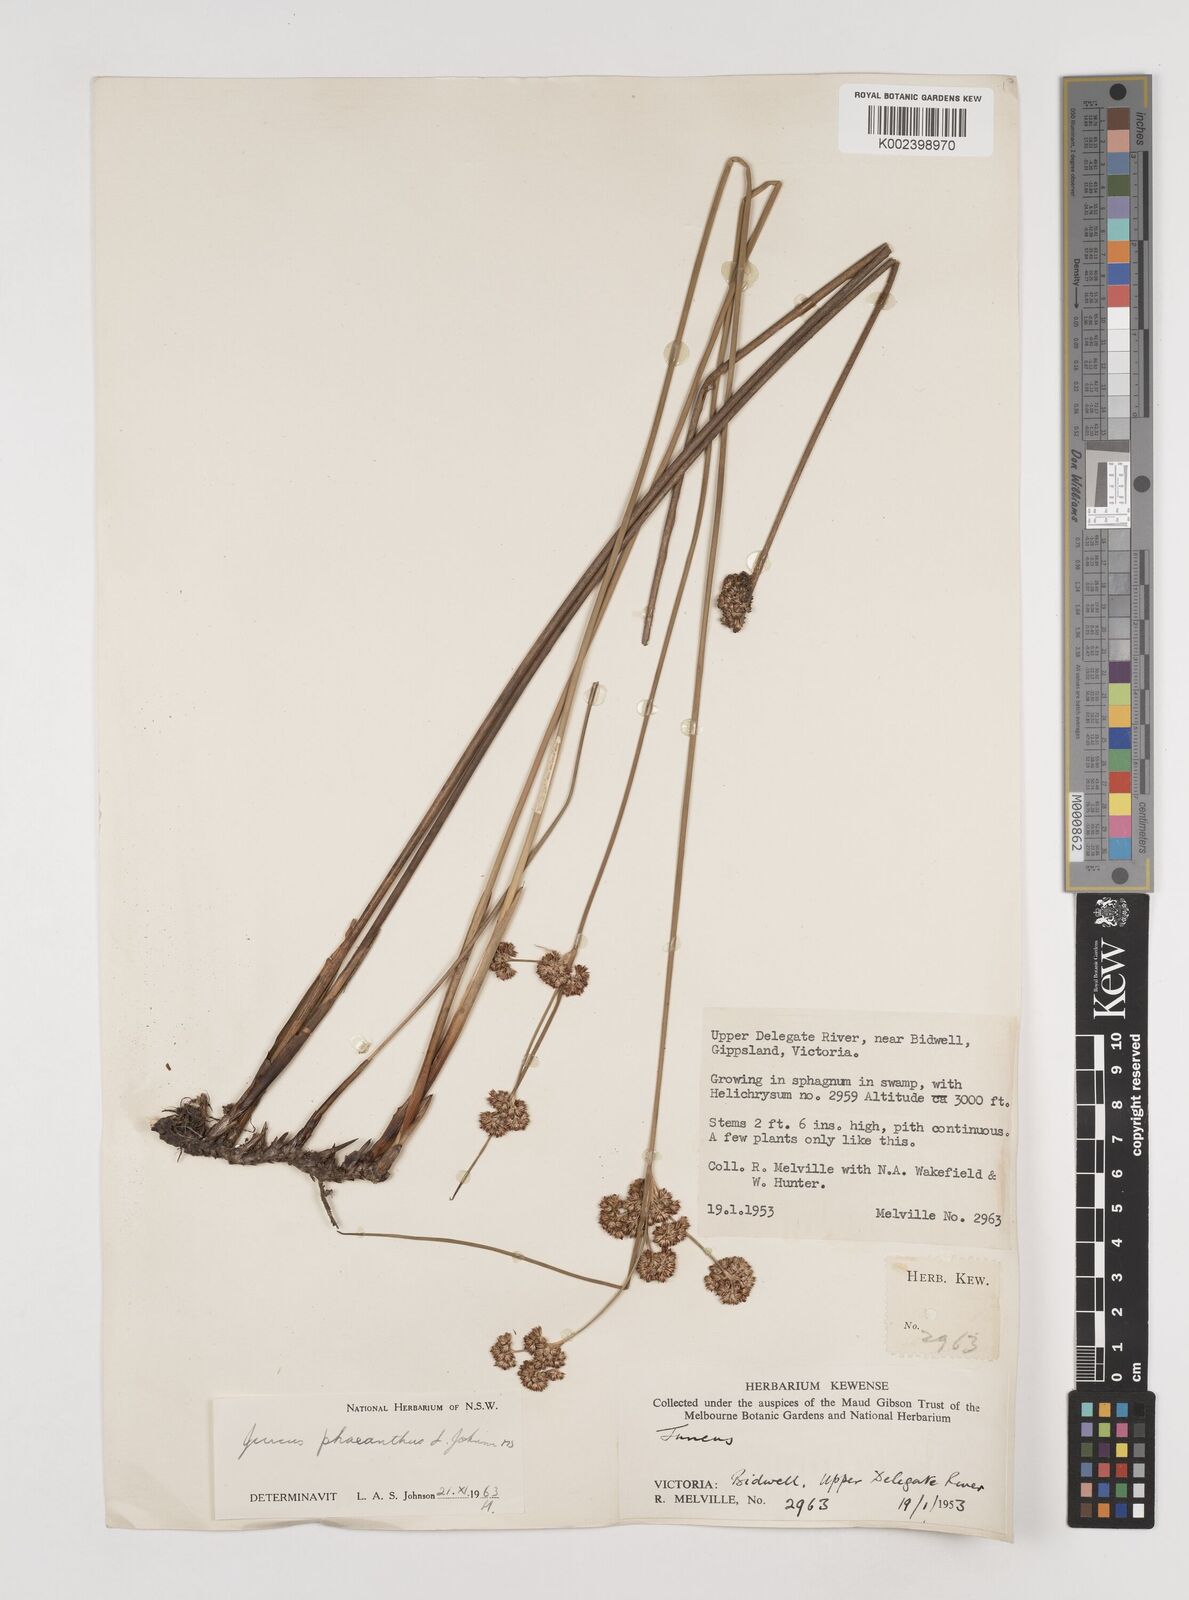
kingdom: Plantae
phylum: Tracheophyta
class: Liliopsida
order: Poales
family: Juncaceae
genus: Juncus
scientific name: Juncus phaeanthus
